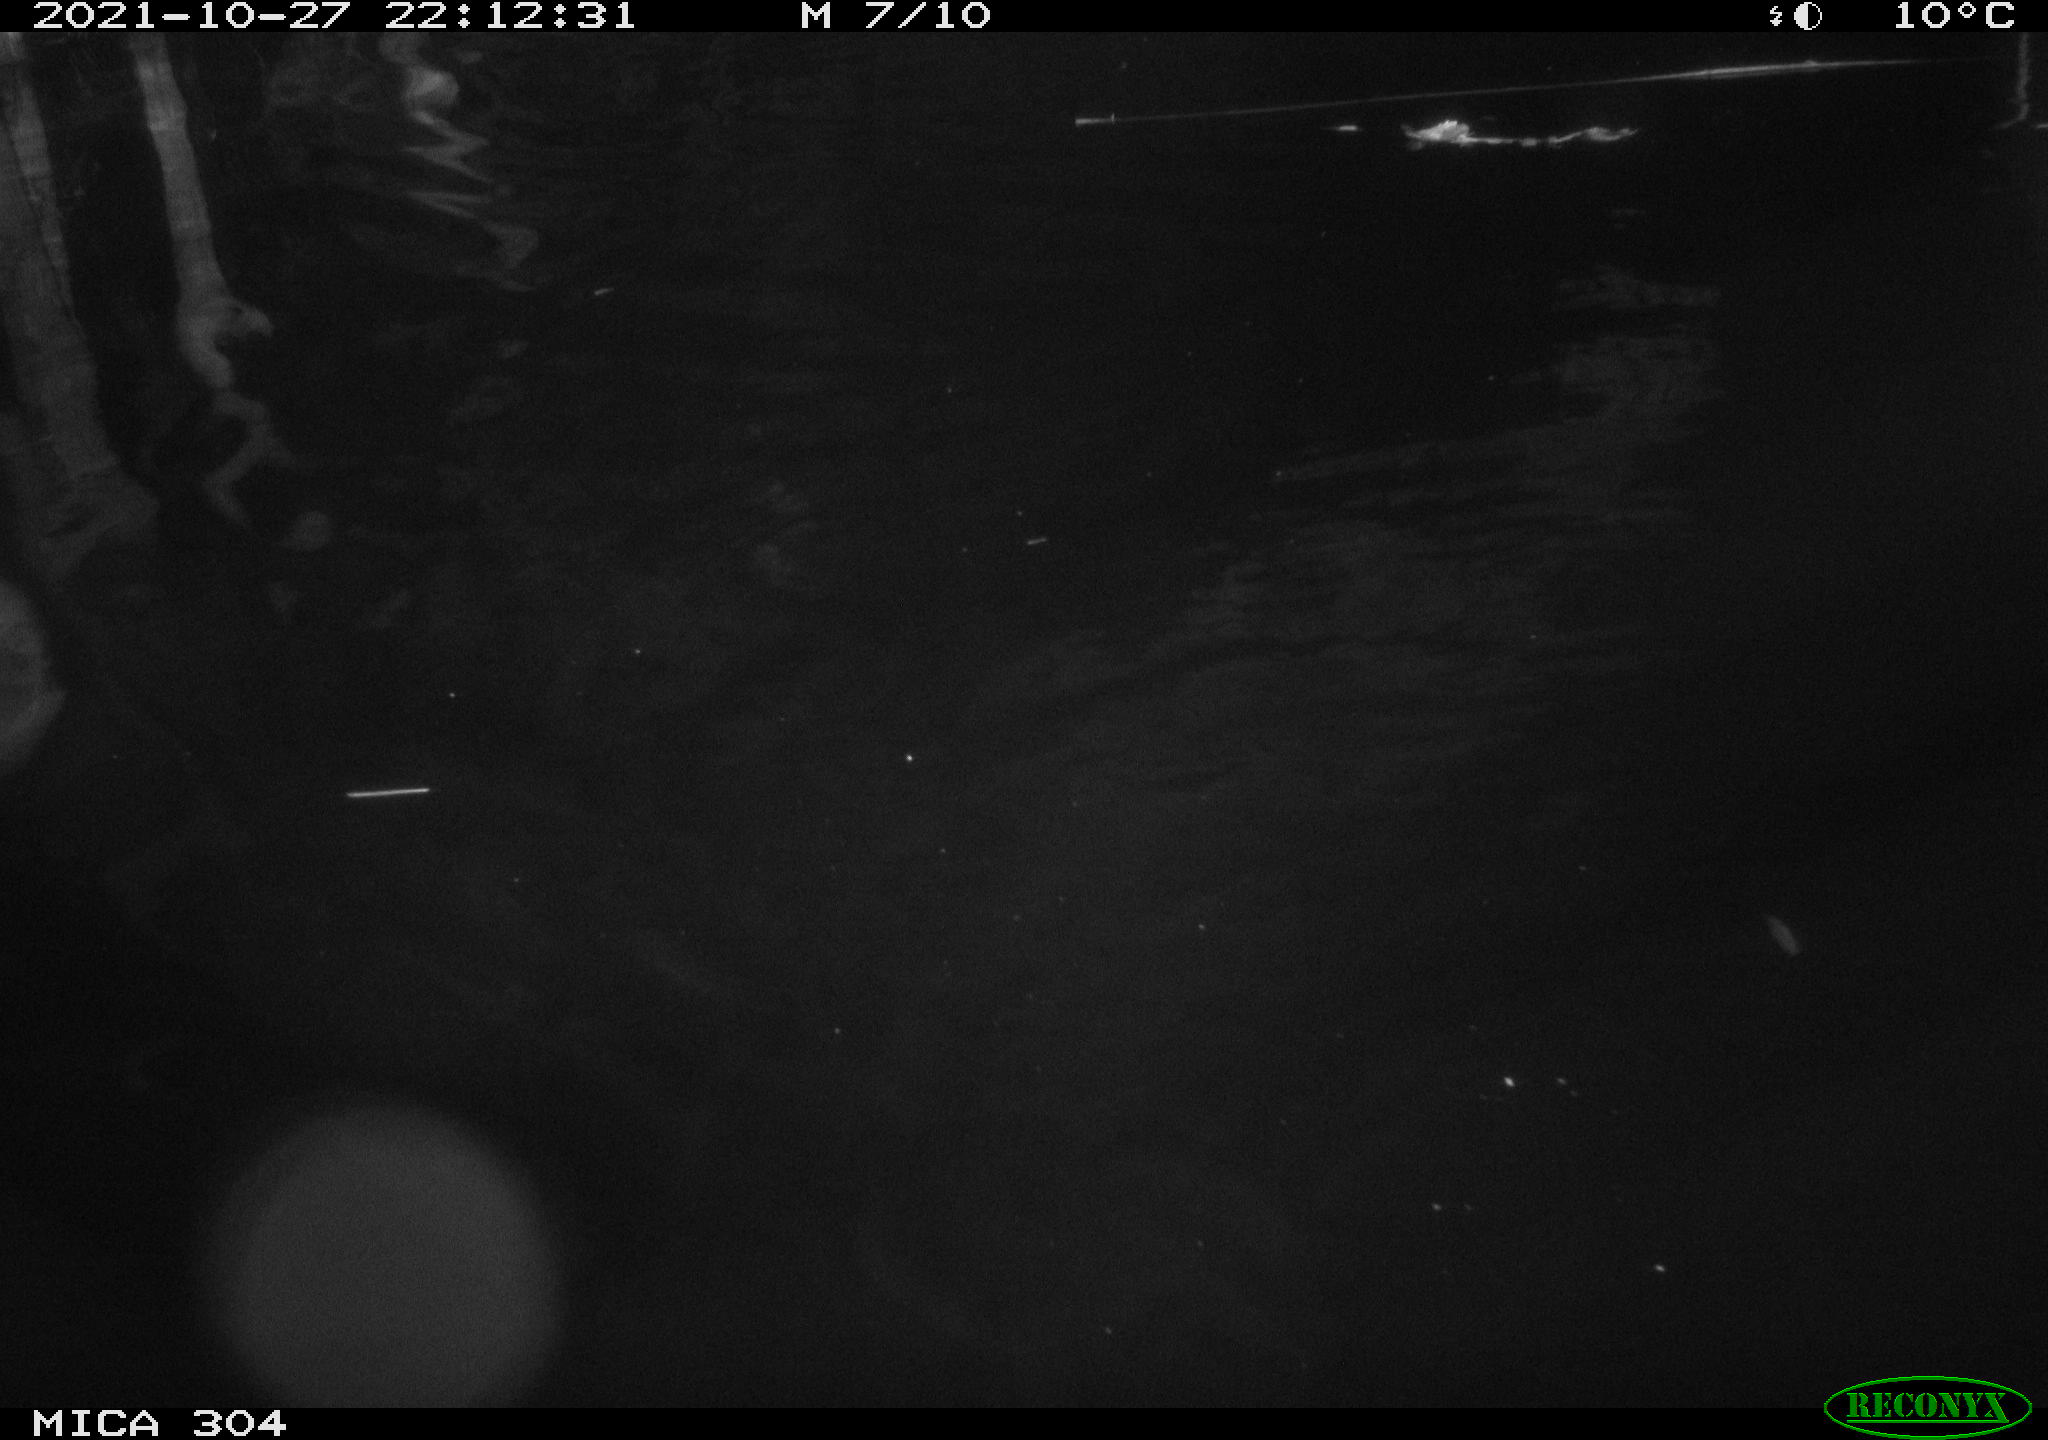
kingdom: Animalia
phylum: Chordata
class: Mammalia
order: Rodentia
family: Cricetidae
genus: Ondatra
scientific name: Ondatra zibethicus
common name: Muskrat
